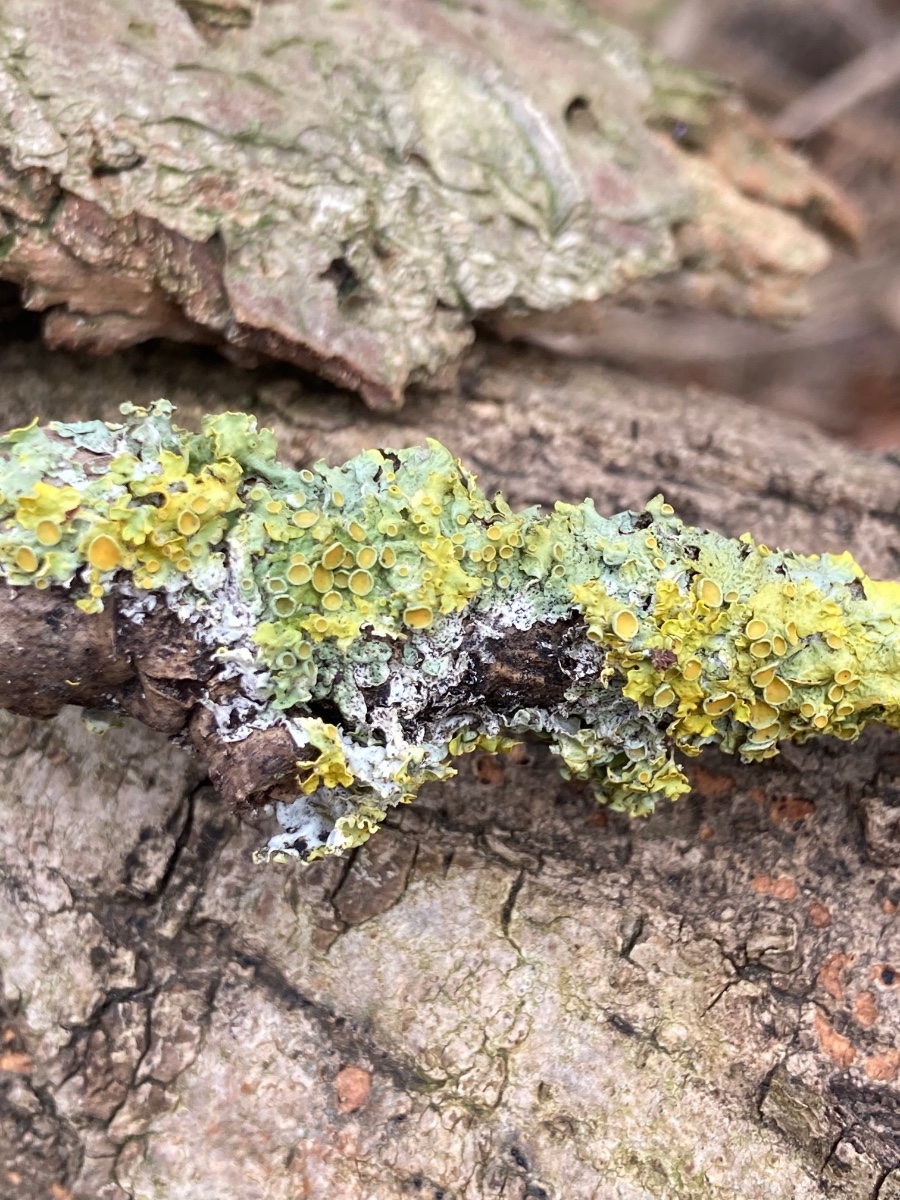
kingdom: Fungi
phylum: Ascomycota
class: Lecanoromycetes
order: Teloschistales
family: Teloschistaceae
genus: Xanthoria
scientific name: Xanthoria parietina
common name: almindelig væggelav
